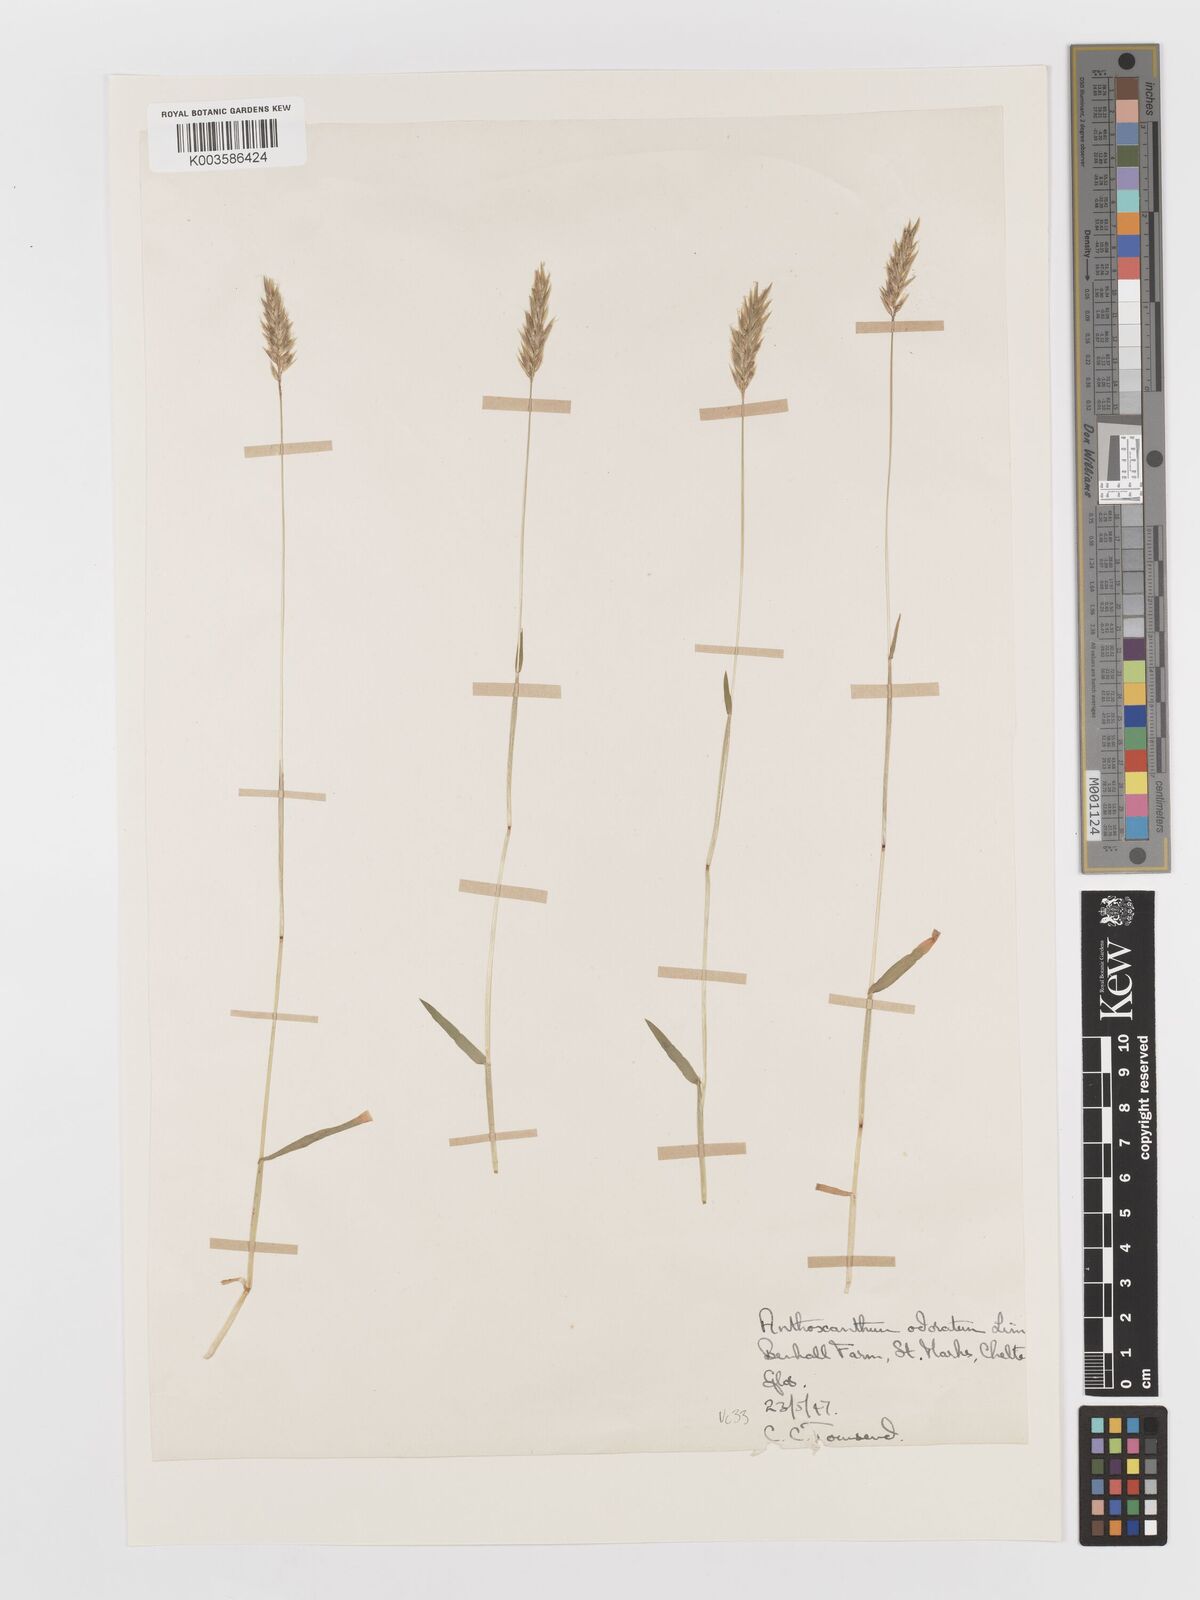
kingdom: Plantae
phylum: Tracheophyta
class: Liliopsida
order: Poales
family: Poaceae
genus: Anthoxanthum
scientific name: Anthoxanthum odoratum
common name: Sweet vernalgrass
